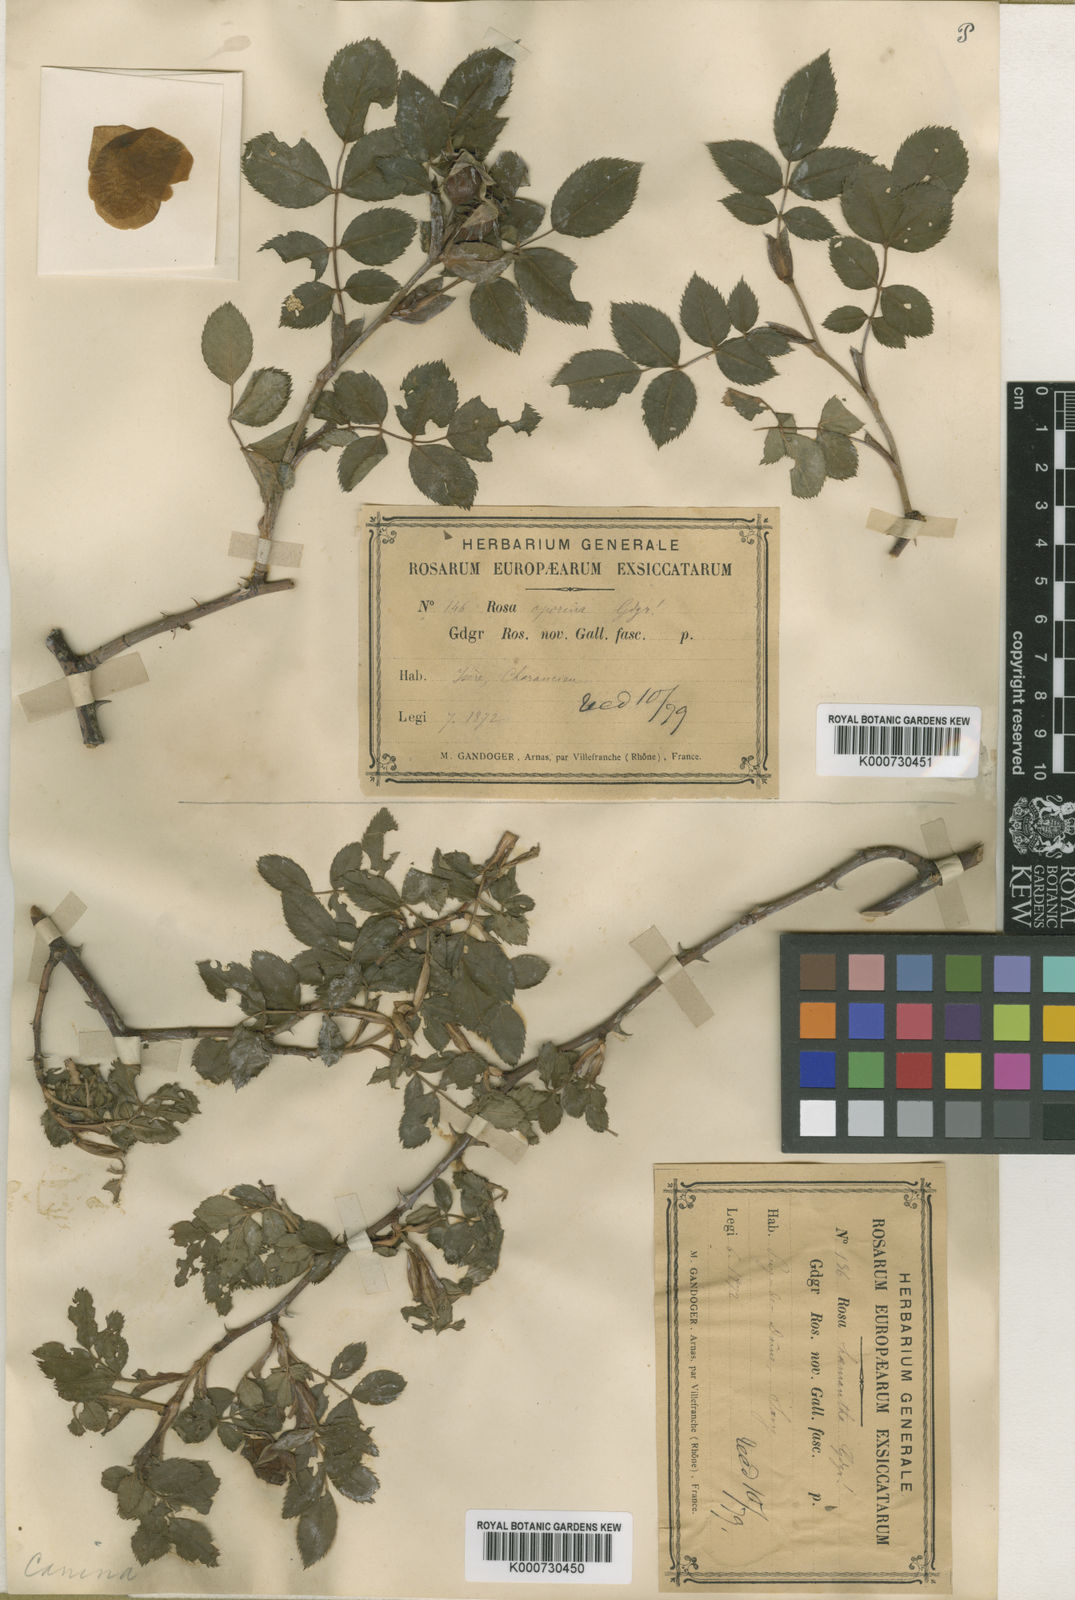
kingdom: Plantae
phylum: Tracheophyta
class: Magnoliopsida
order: Rosales
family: Rosaceae
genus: Rosa
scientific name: Rosa canina
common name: Dog rose
